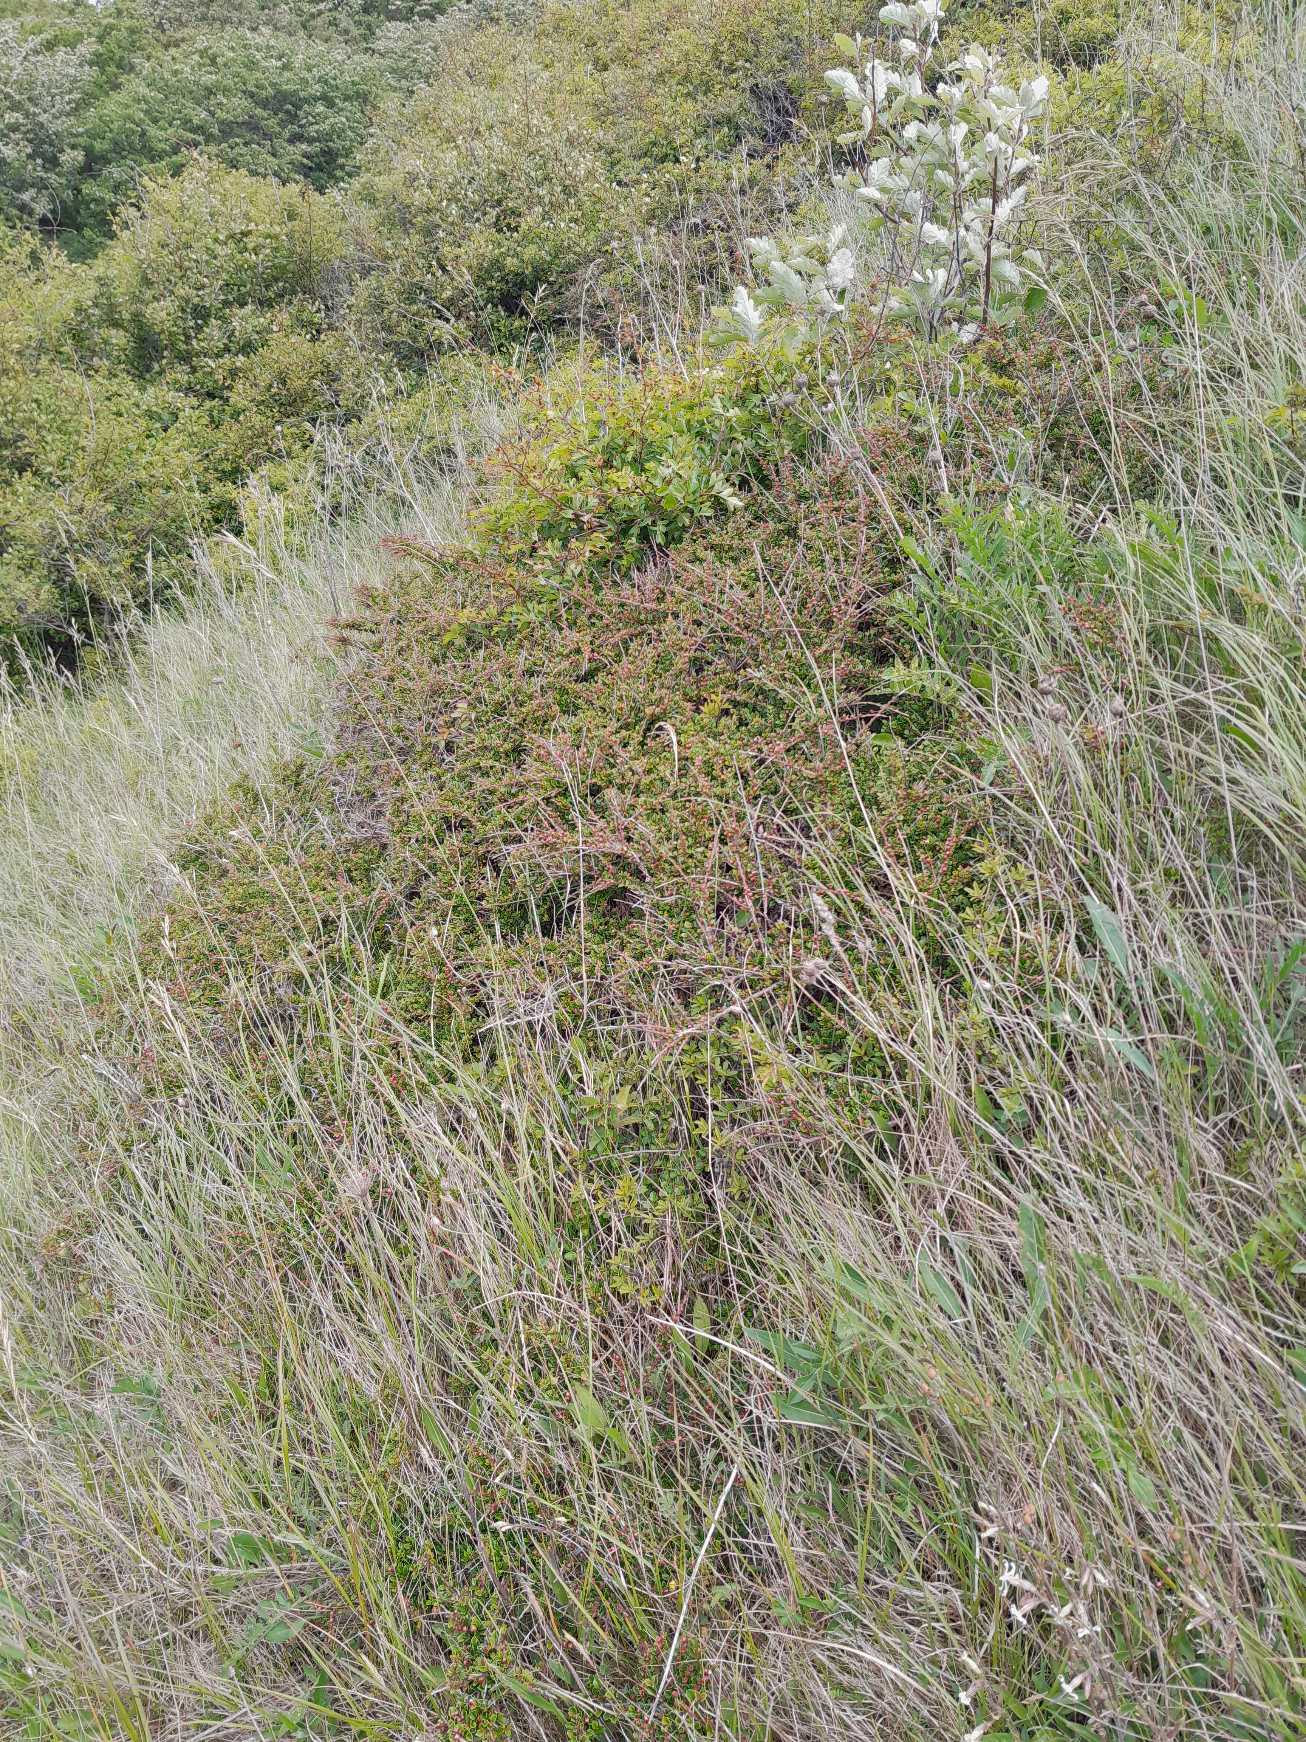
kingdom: Plantae
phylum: Tracheophyta
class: Magnoliopsida
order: Rosales
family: Rosaceae
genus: Cotoneaster
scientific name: Cotoneaster
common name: Dværgmispelslægten
